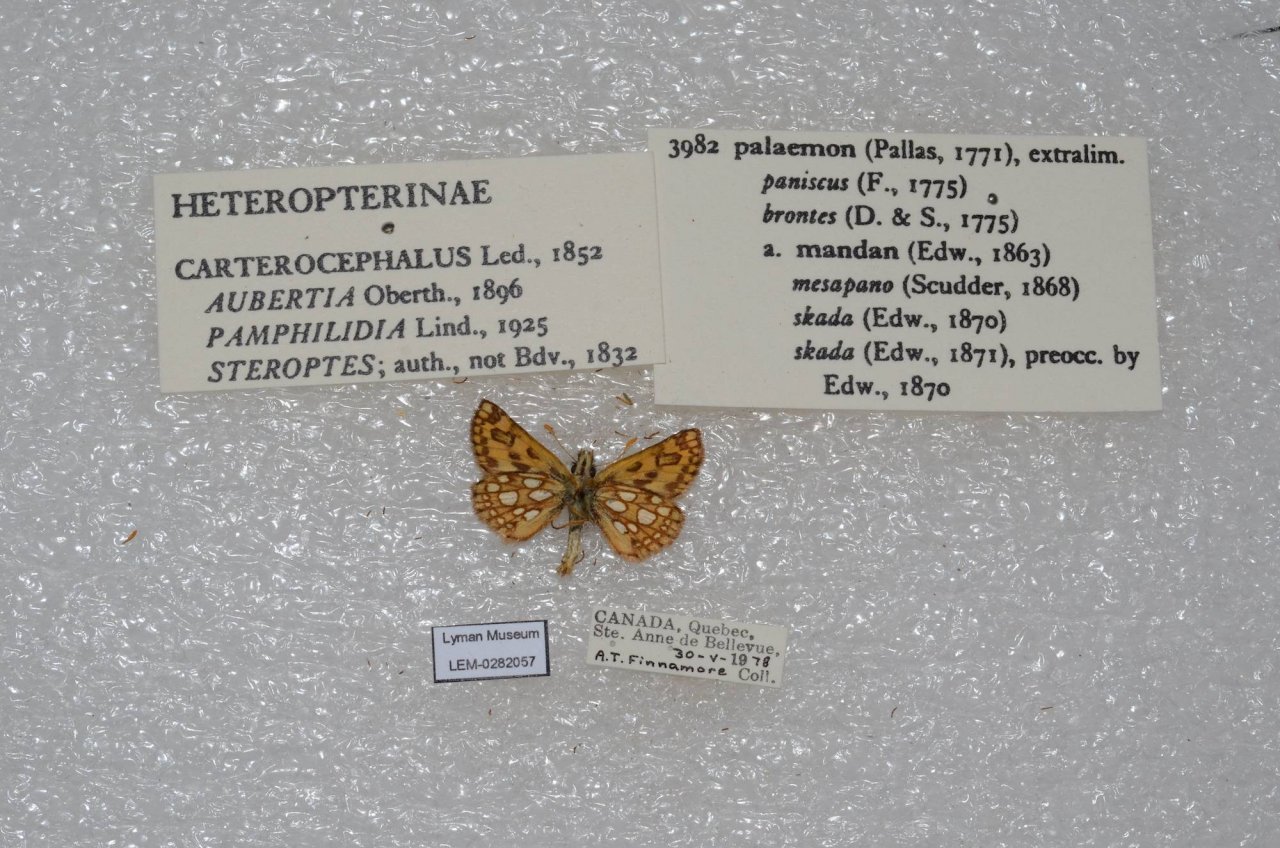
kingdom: Animalia
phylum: Arthropoda
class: Insecta
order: Lepidoptera
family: Hesperiidae
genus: Carterocephalus
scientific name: Carterocephalus palaemon
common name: Chequered Skipper
